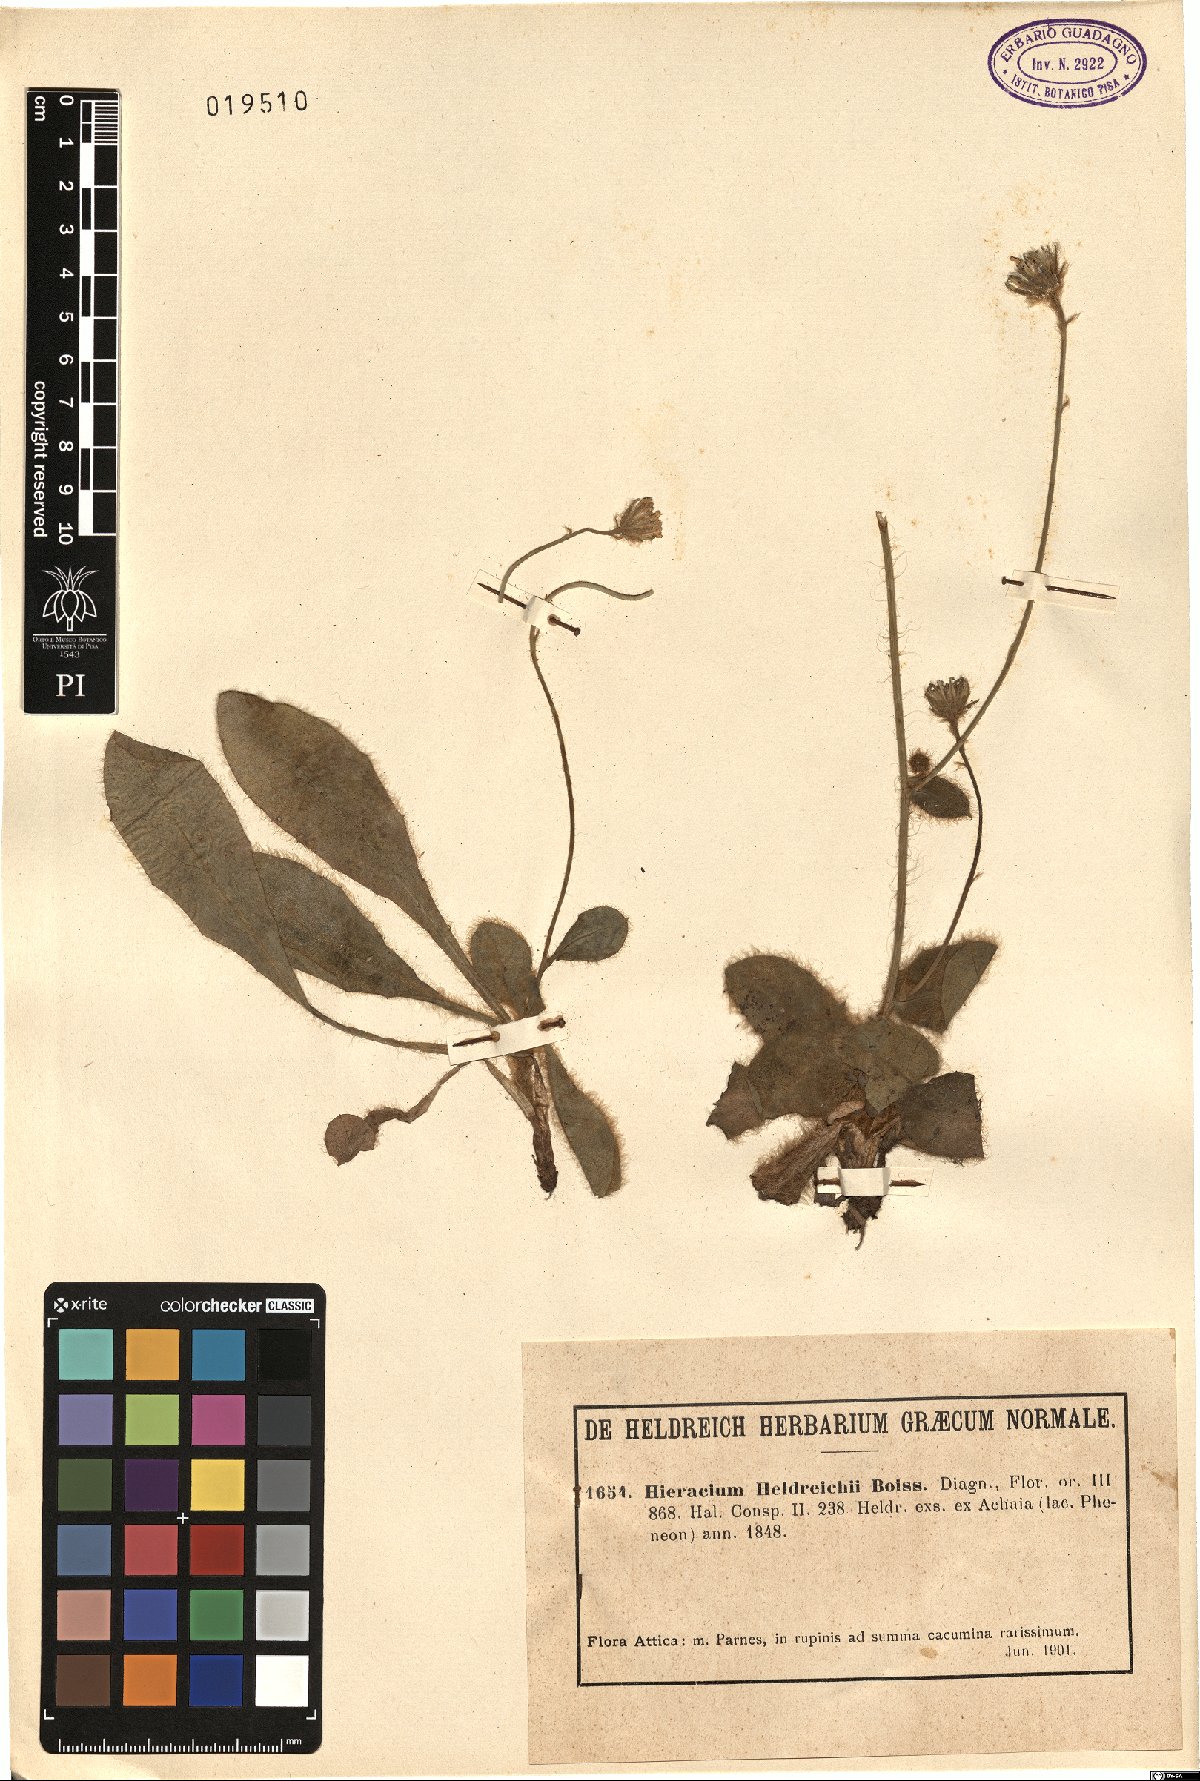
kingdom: Plantae
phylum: Tracheophyta
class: Magnoliopsida
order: Asterales
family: Asteraceae
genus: Hieracium
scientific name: Hieracium heldreichii
